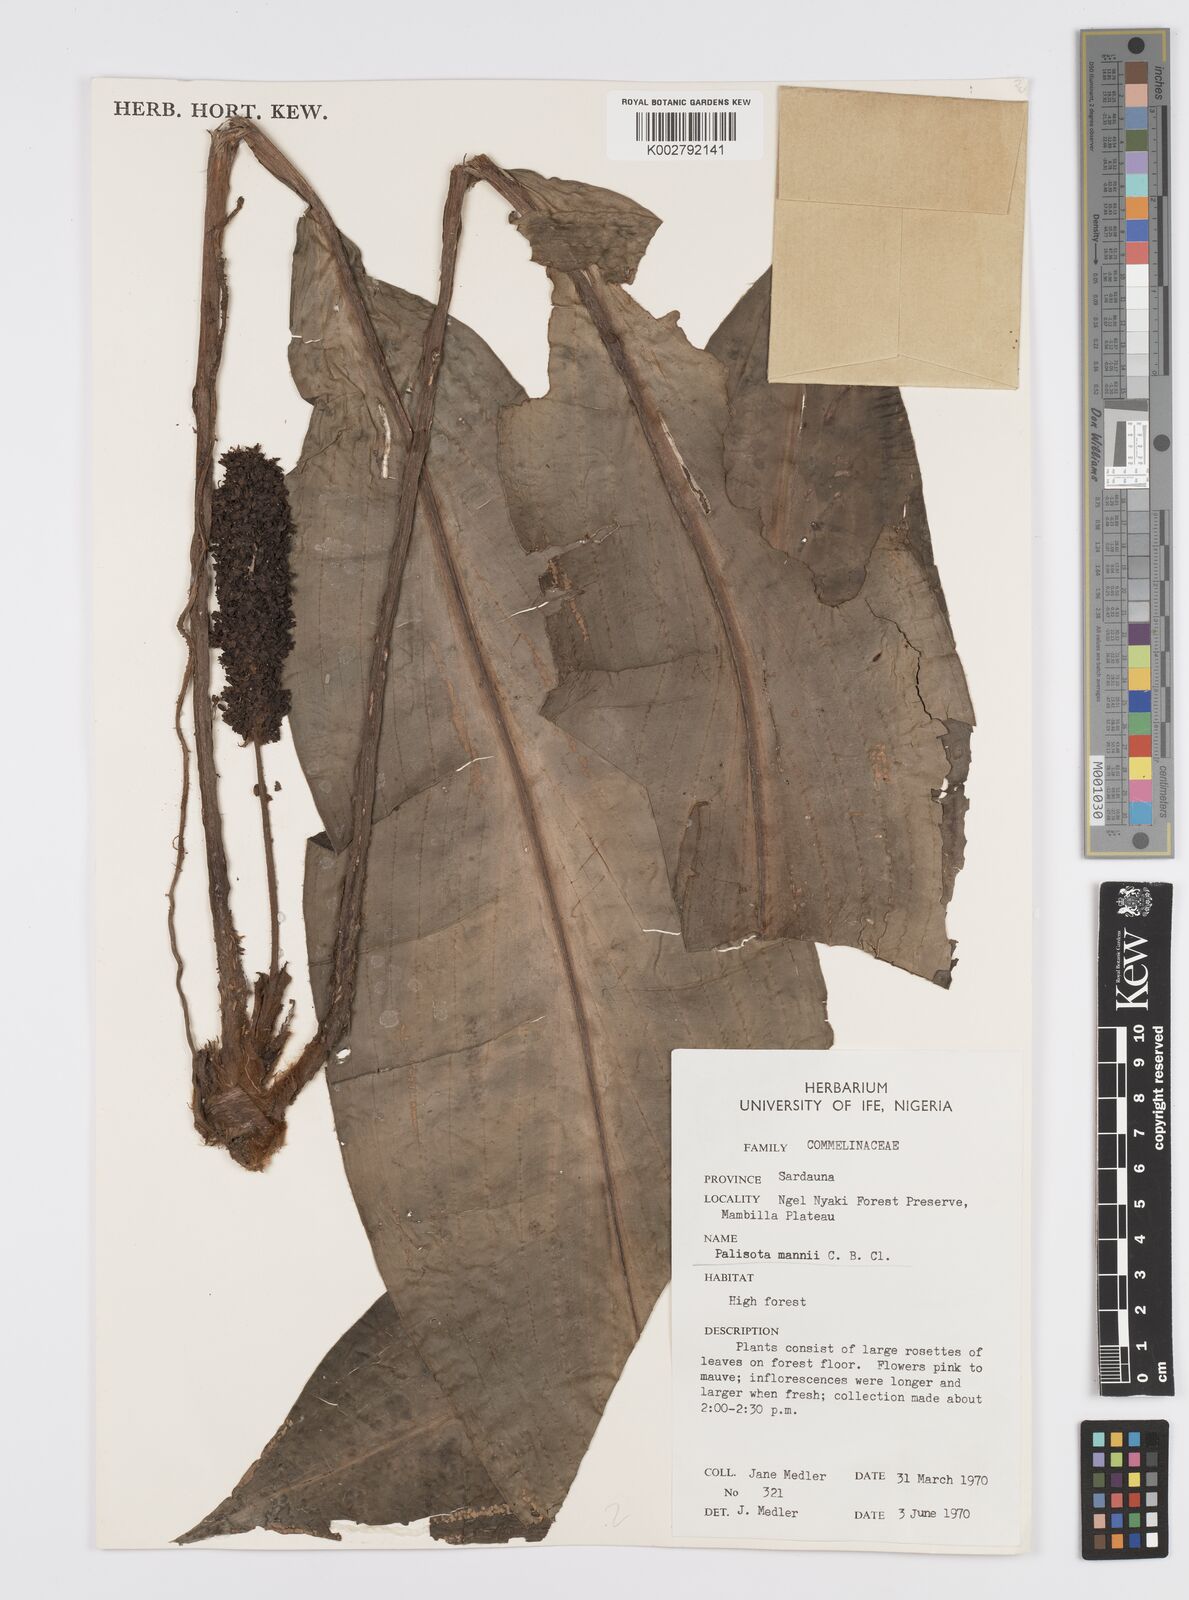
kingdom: Plantae
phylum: Tracheophyta
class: Liliopsida
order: Commelinales
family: Commelinaceae
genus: Palisota
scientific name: Palisota mannii
